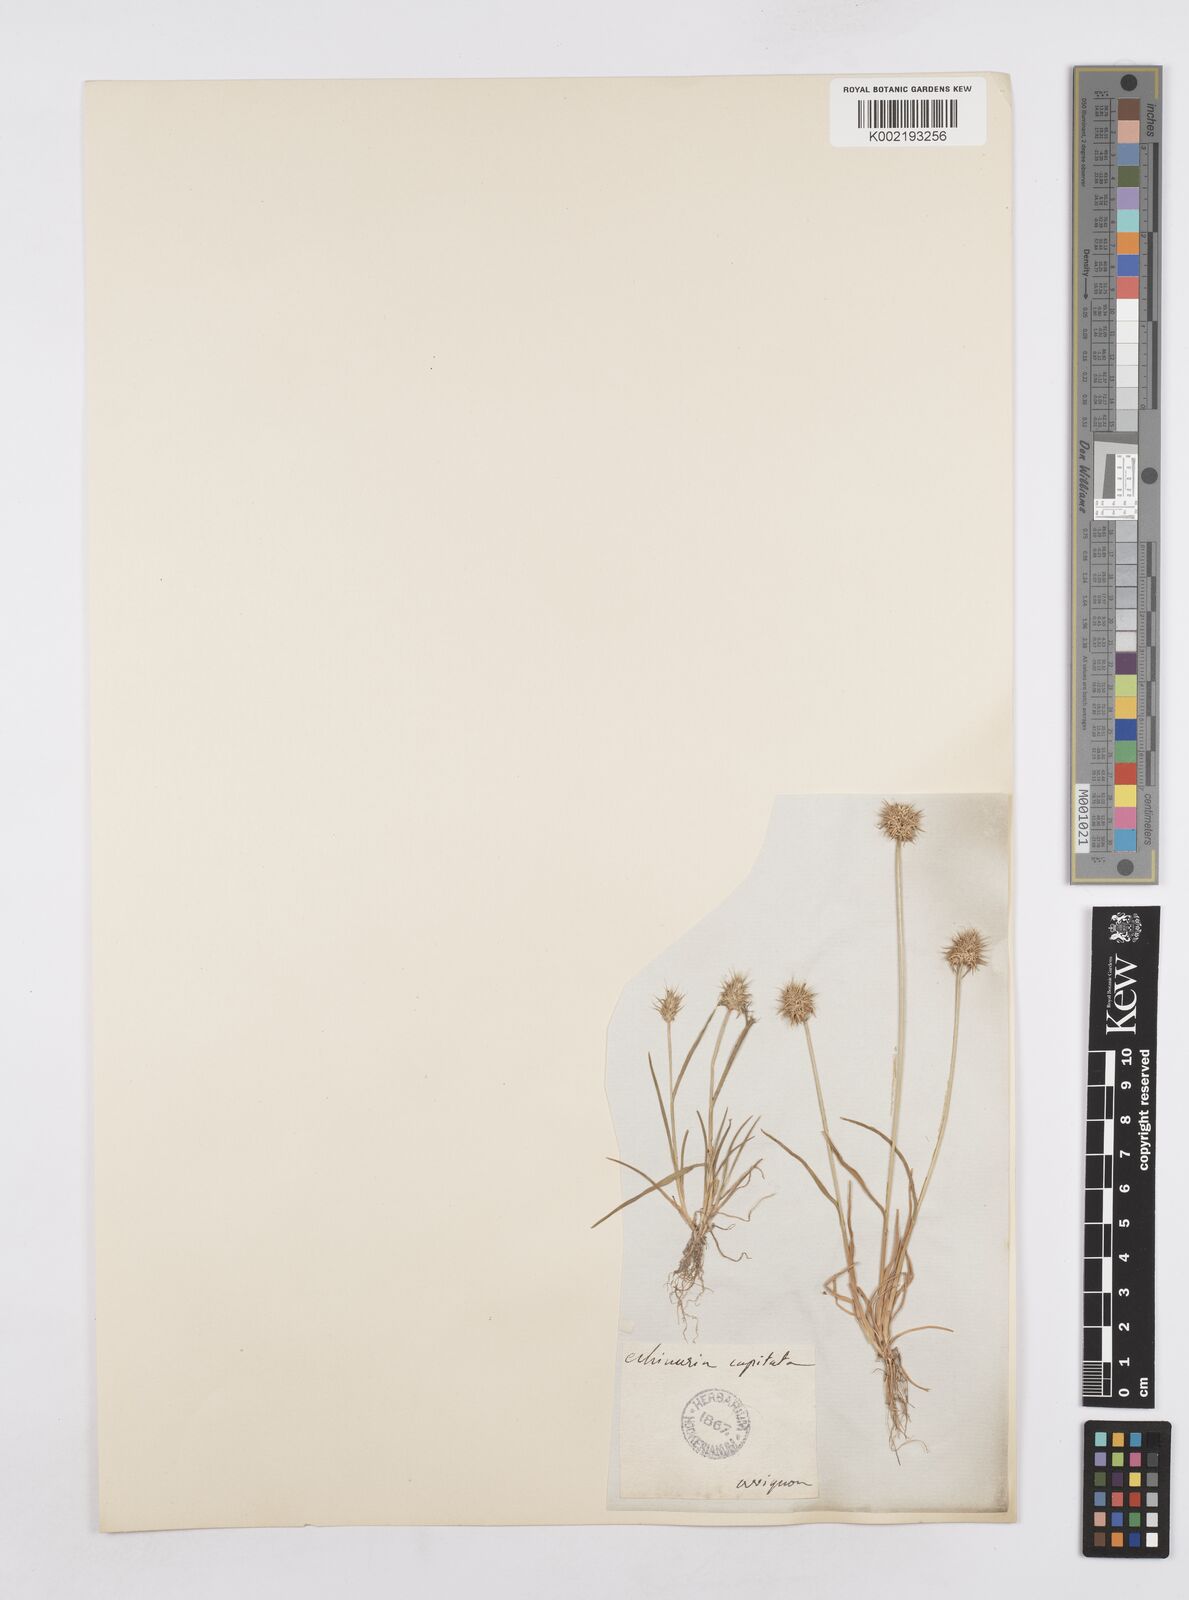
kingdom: Plantae
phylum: Tracheophyta
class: Liliopsida
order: Poales
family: Poaceae
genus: Echinaria
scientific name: Echinaria capitata
